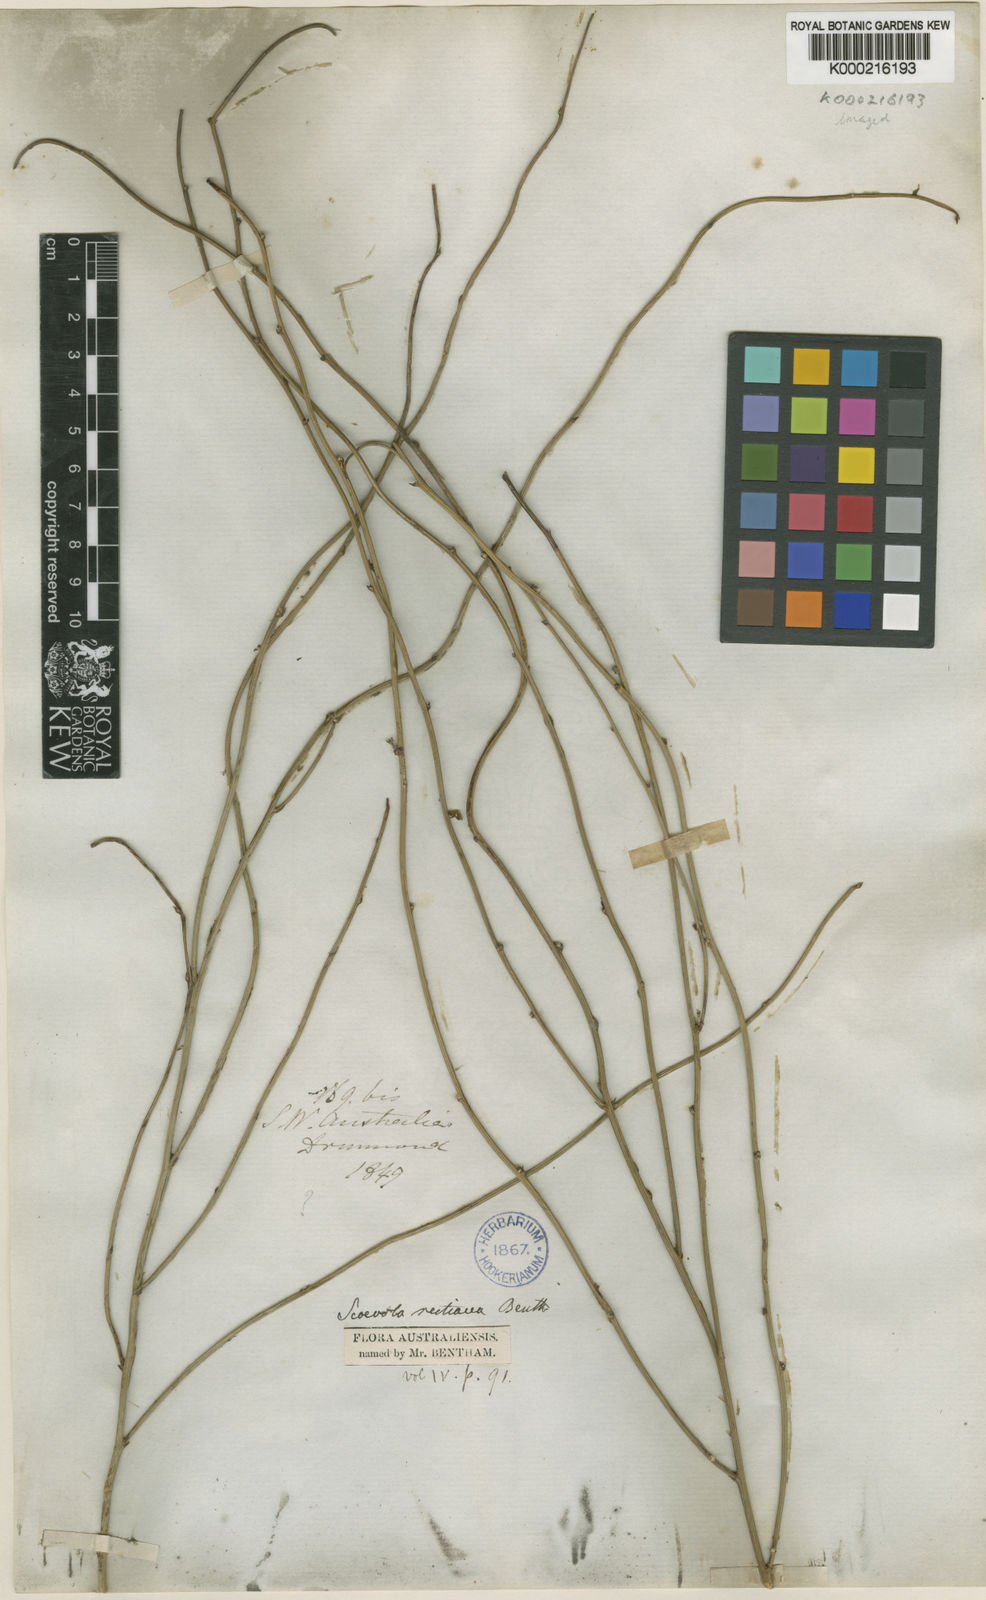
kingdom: Plantae
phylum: Tracheophyta
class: Magnoliopsida
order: Asterales
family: Goodeniaceae
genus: Scaevola
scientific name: Scaevola restiacea
